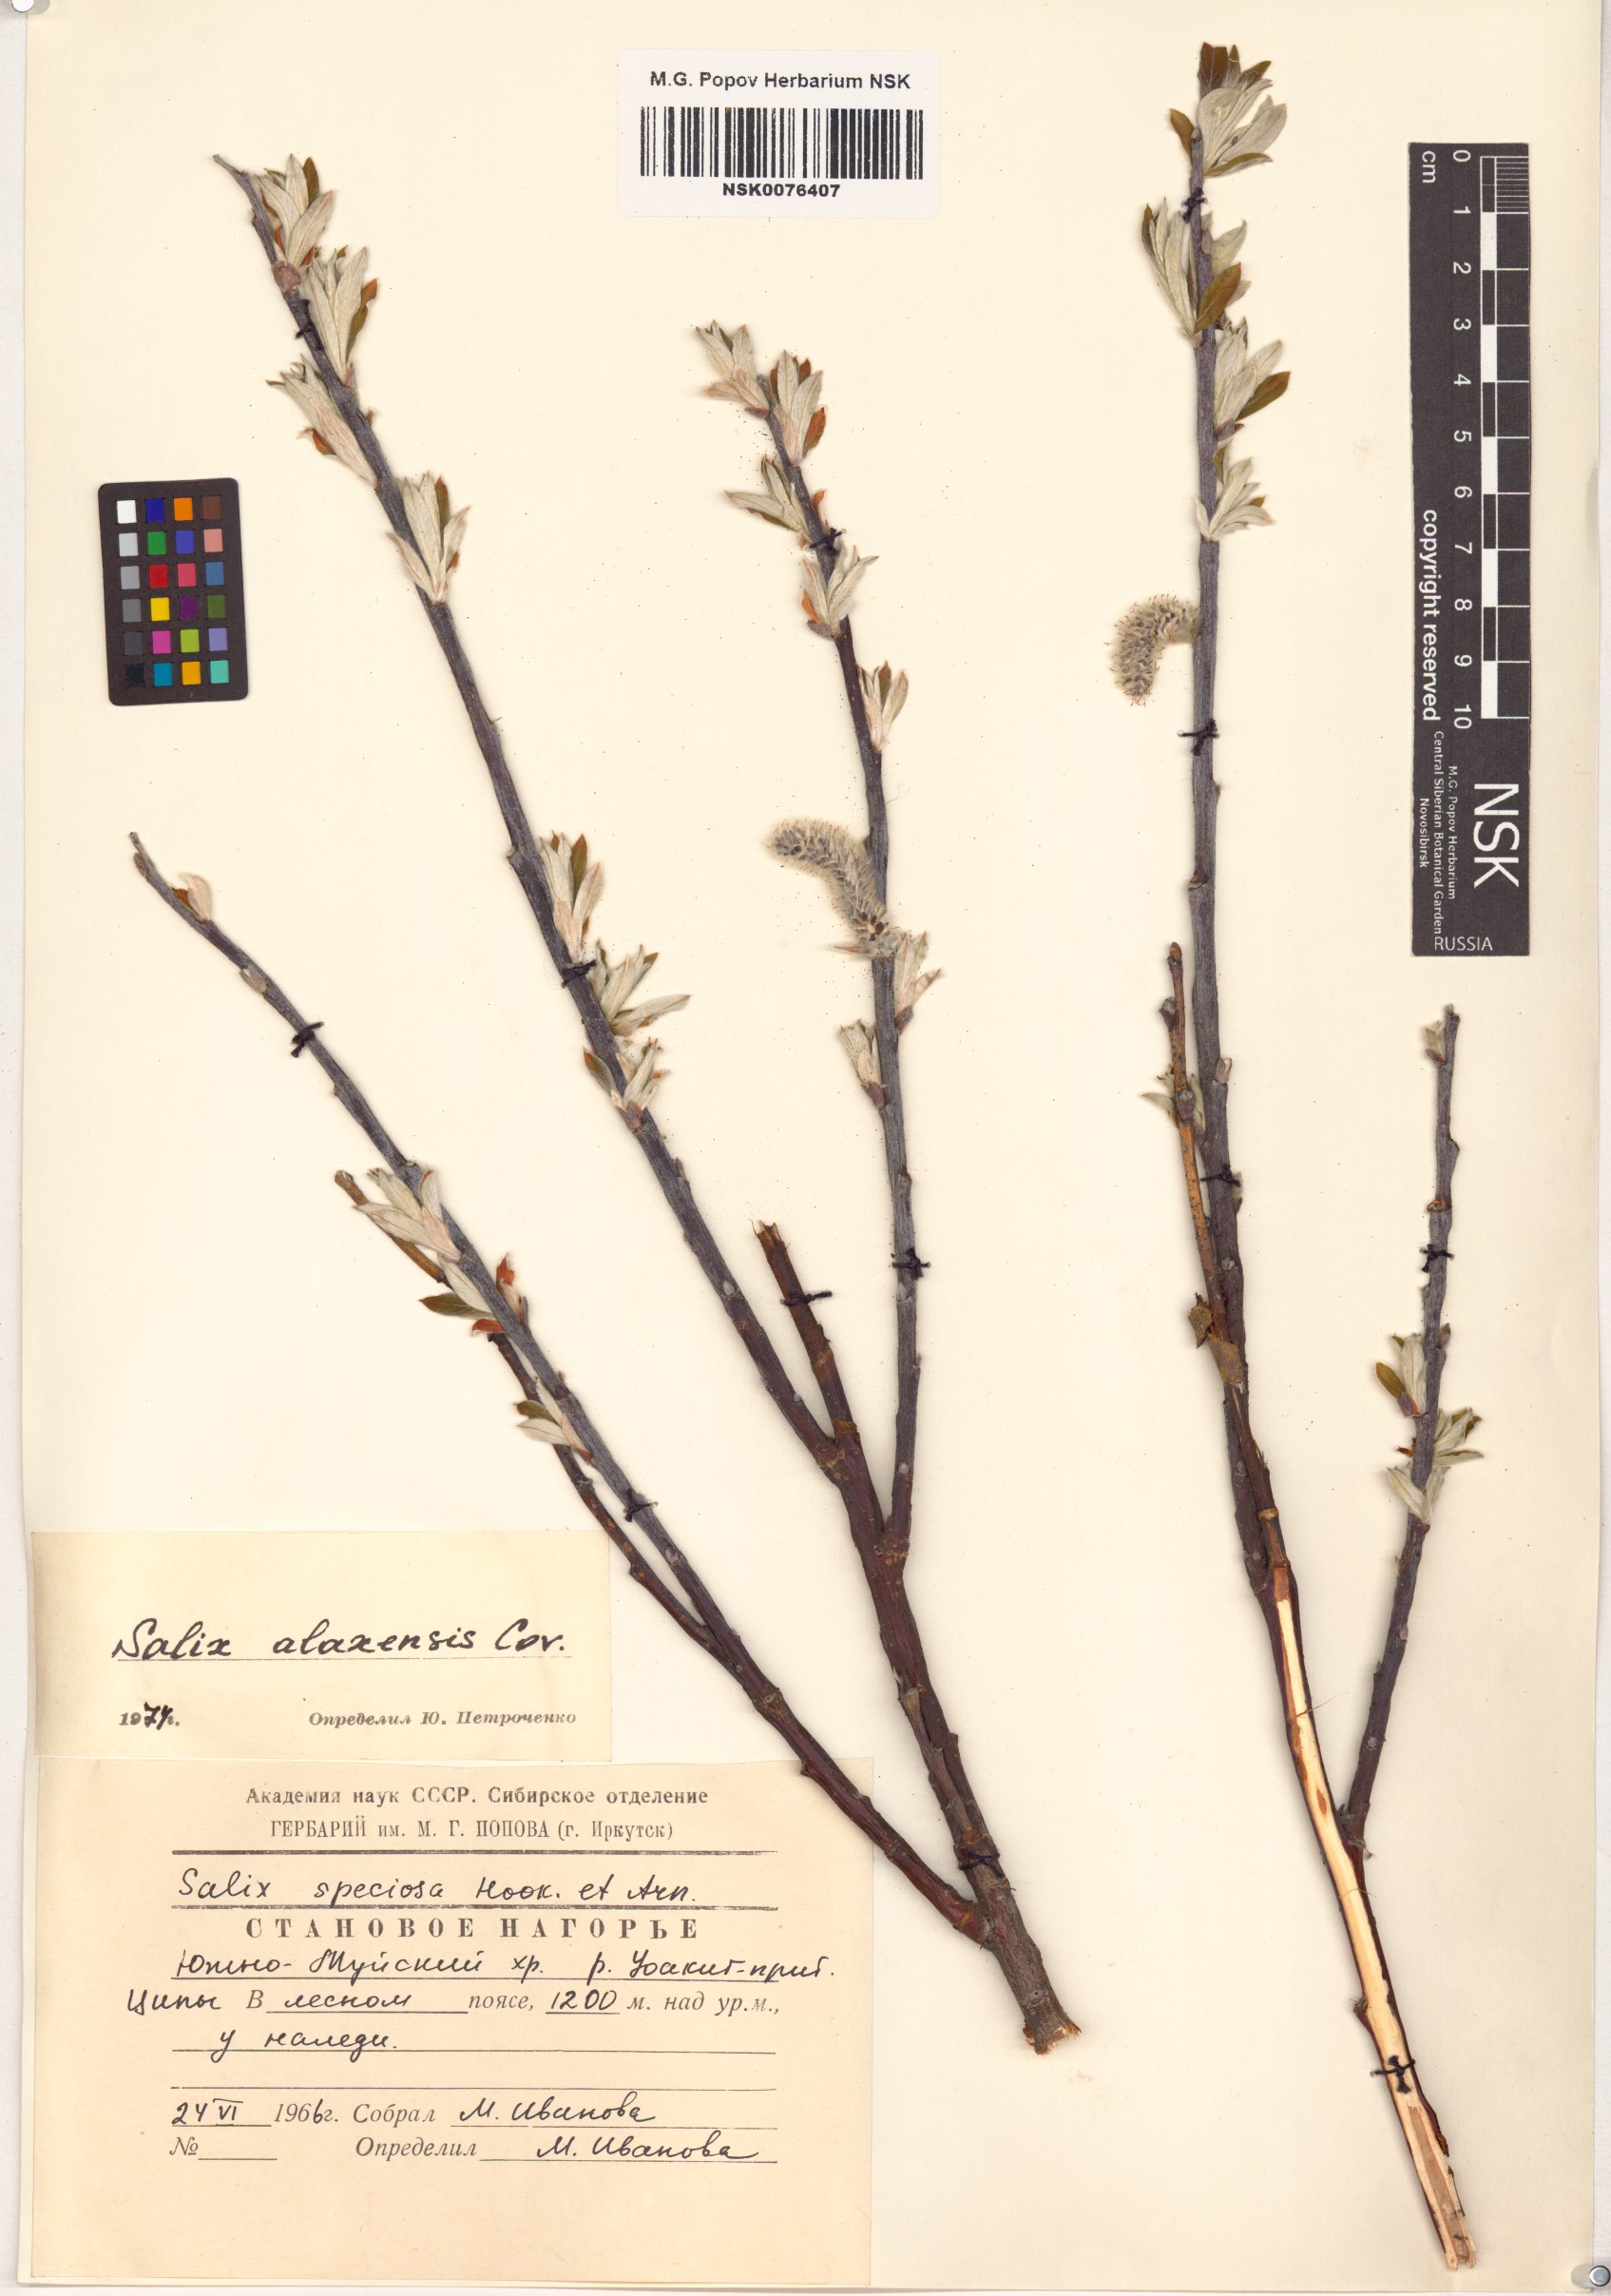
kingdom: Plantae
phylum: Tracheophyta
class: Magnoliopsida
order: Malpighiales
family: Salicaceae
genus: Salix
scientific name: Salix alaxensis
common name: Feltleaf willow
